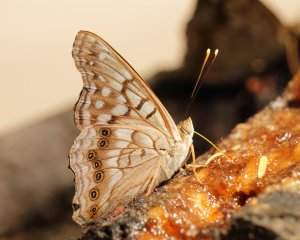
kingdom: Animalia
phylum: Arthropoda
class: Insecta
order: Lepidoptera
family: Nymphalidae
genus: Asterocampa
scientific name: Asterocampa clyton
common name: Tawny Emperor
